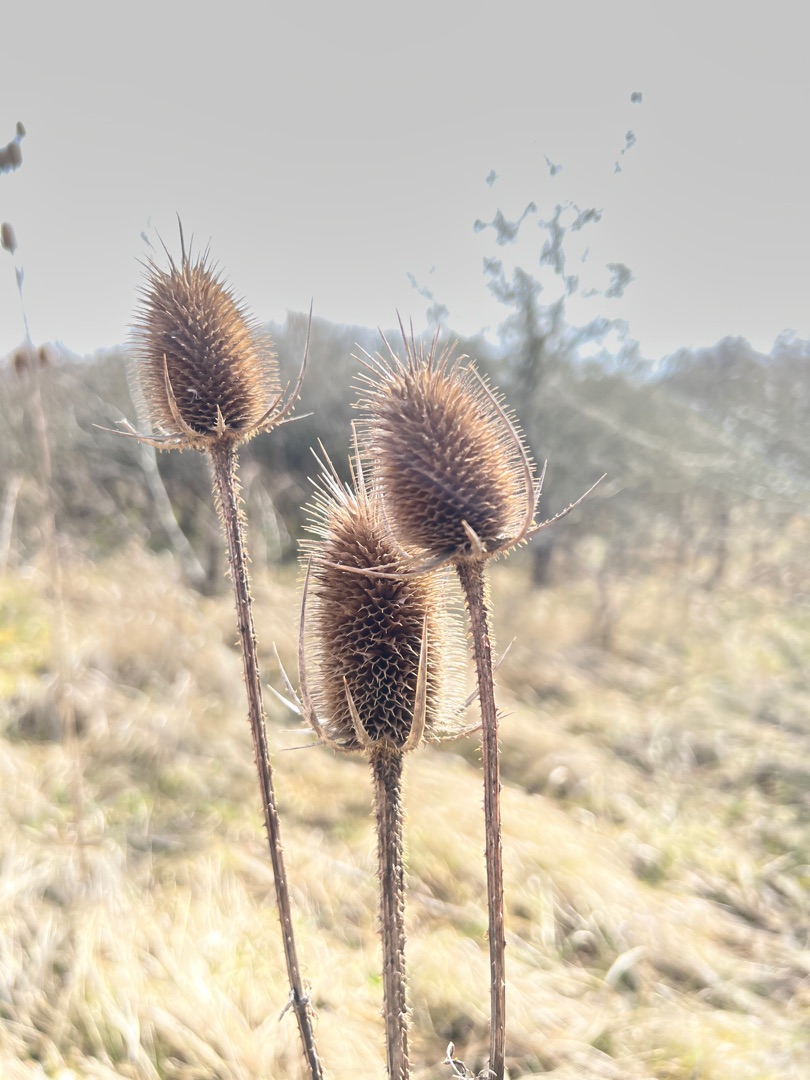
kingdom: Plantae
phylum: Tracheophyta
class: Magnoliopsida
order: Dipsacales
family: Caprifoliaceae
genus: Dipsacus
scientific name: Dipsacus fullonum
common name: Gærde-kartebolle
